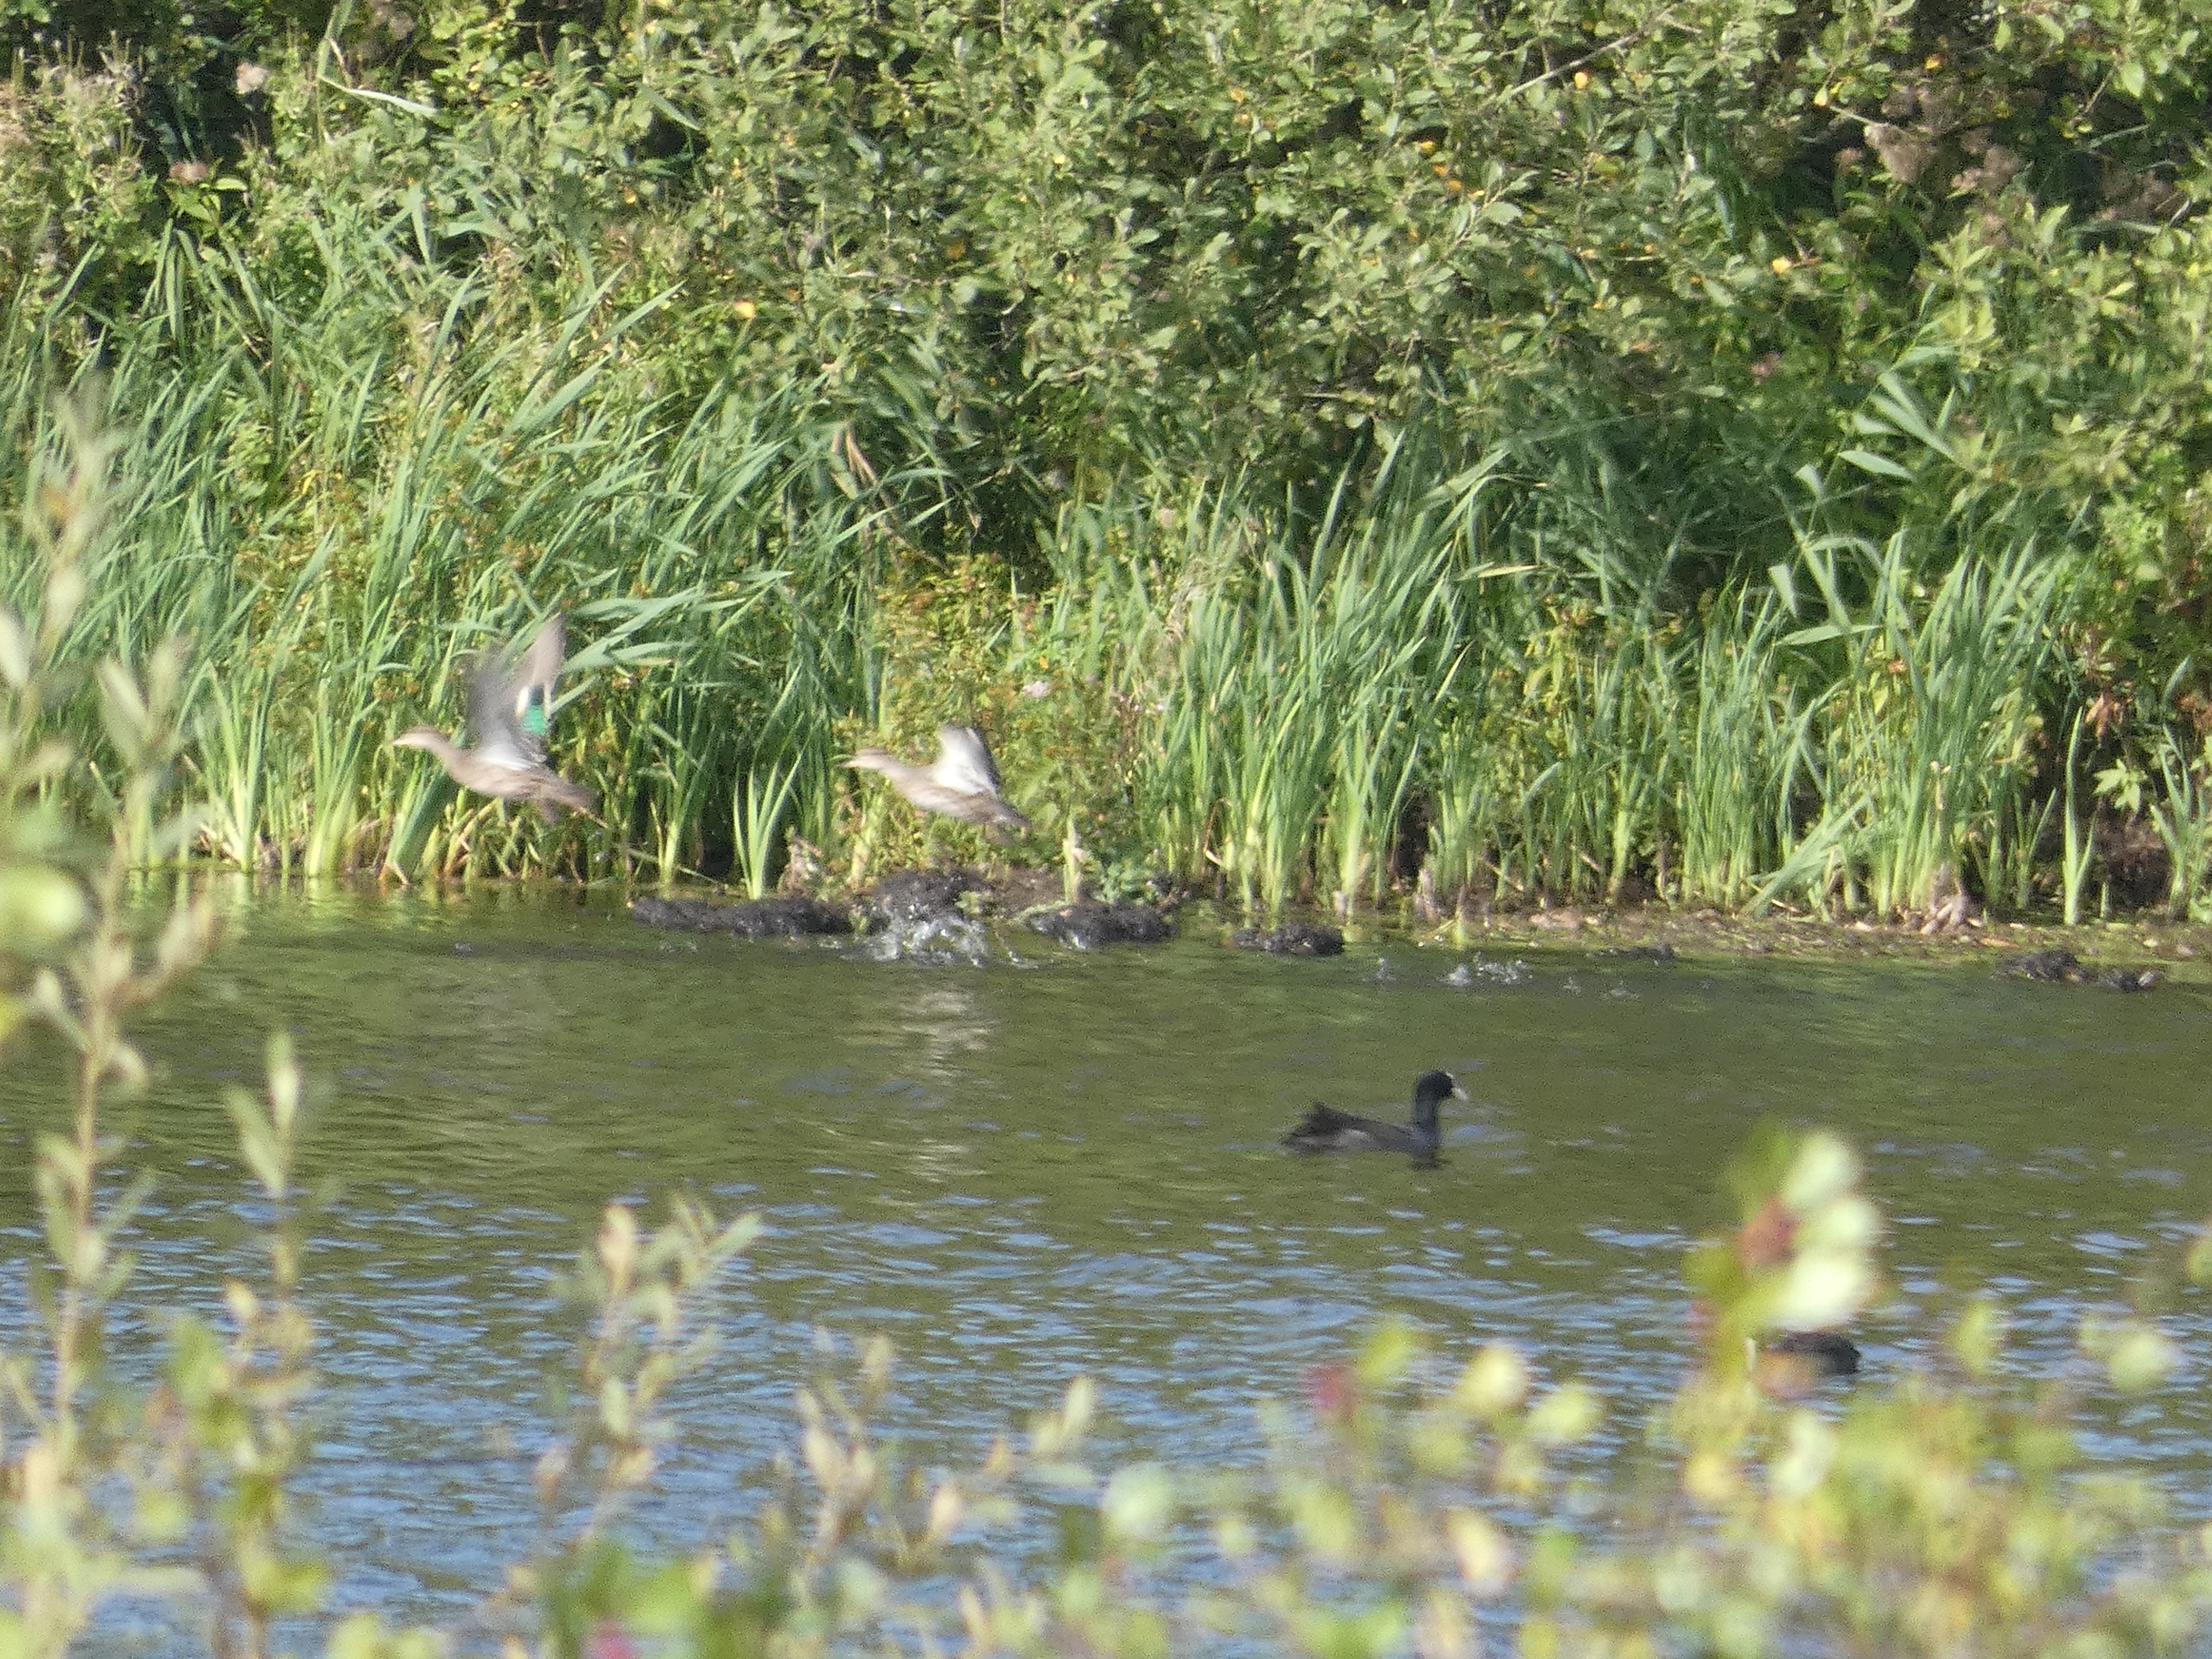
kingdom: Animalia
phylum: Chordata
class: Aves
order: Anseriformes
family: Anatidae
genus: Anas
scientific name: Anas crecca
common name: Krikand
